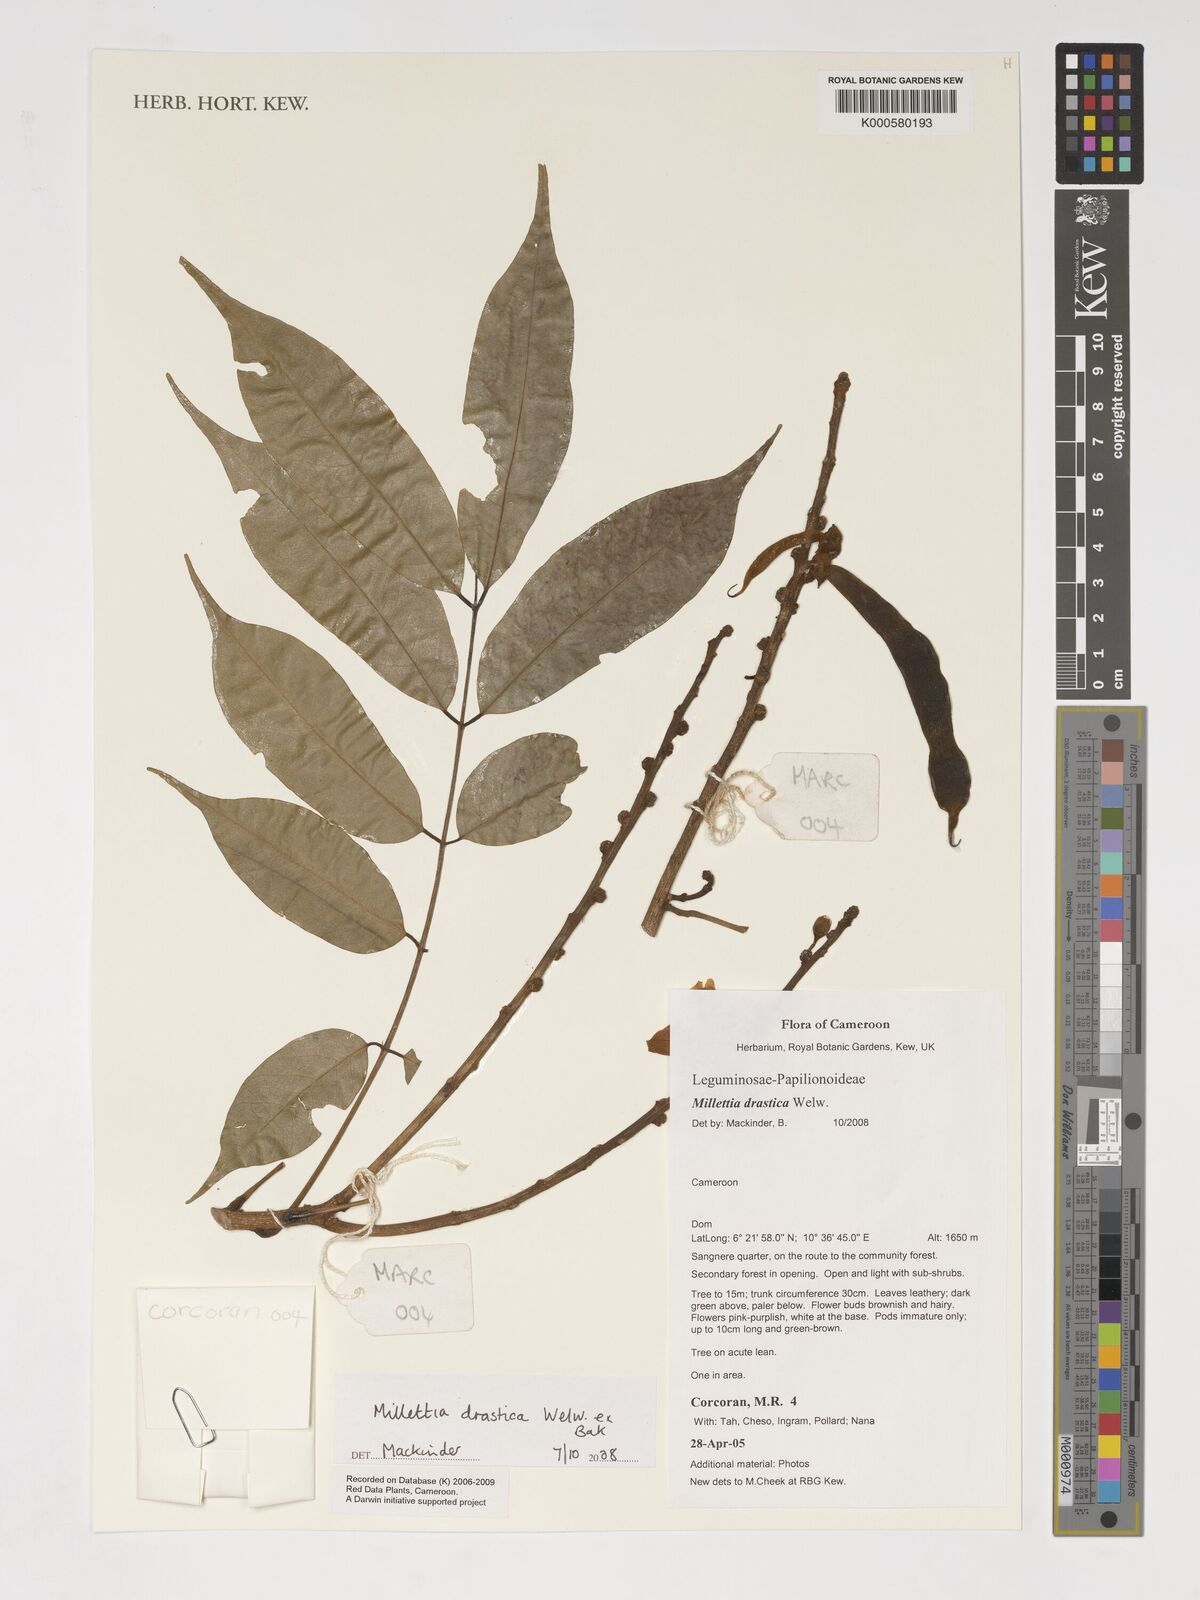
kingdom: Plantae
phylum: Tracheophyta
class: Magnoliopsida
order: Fabales
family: Fabaceae
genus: Millettia
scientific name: Millettia drastica
